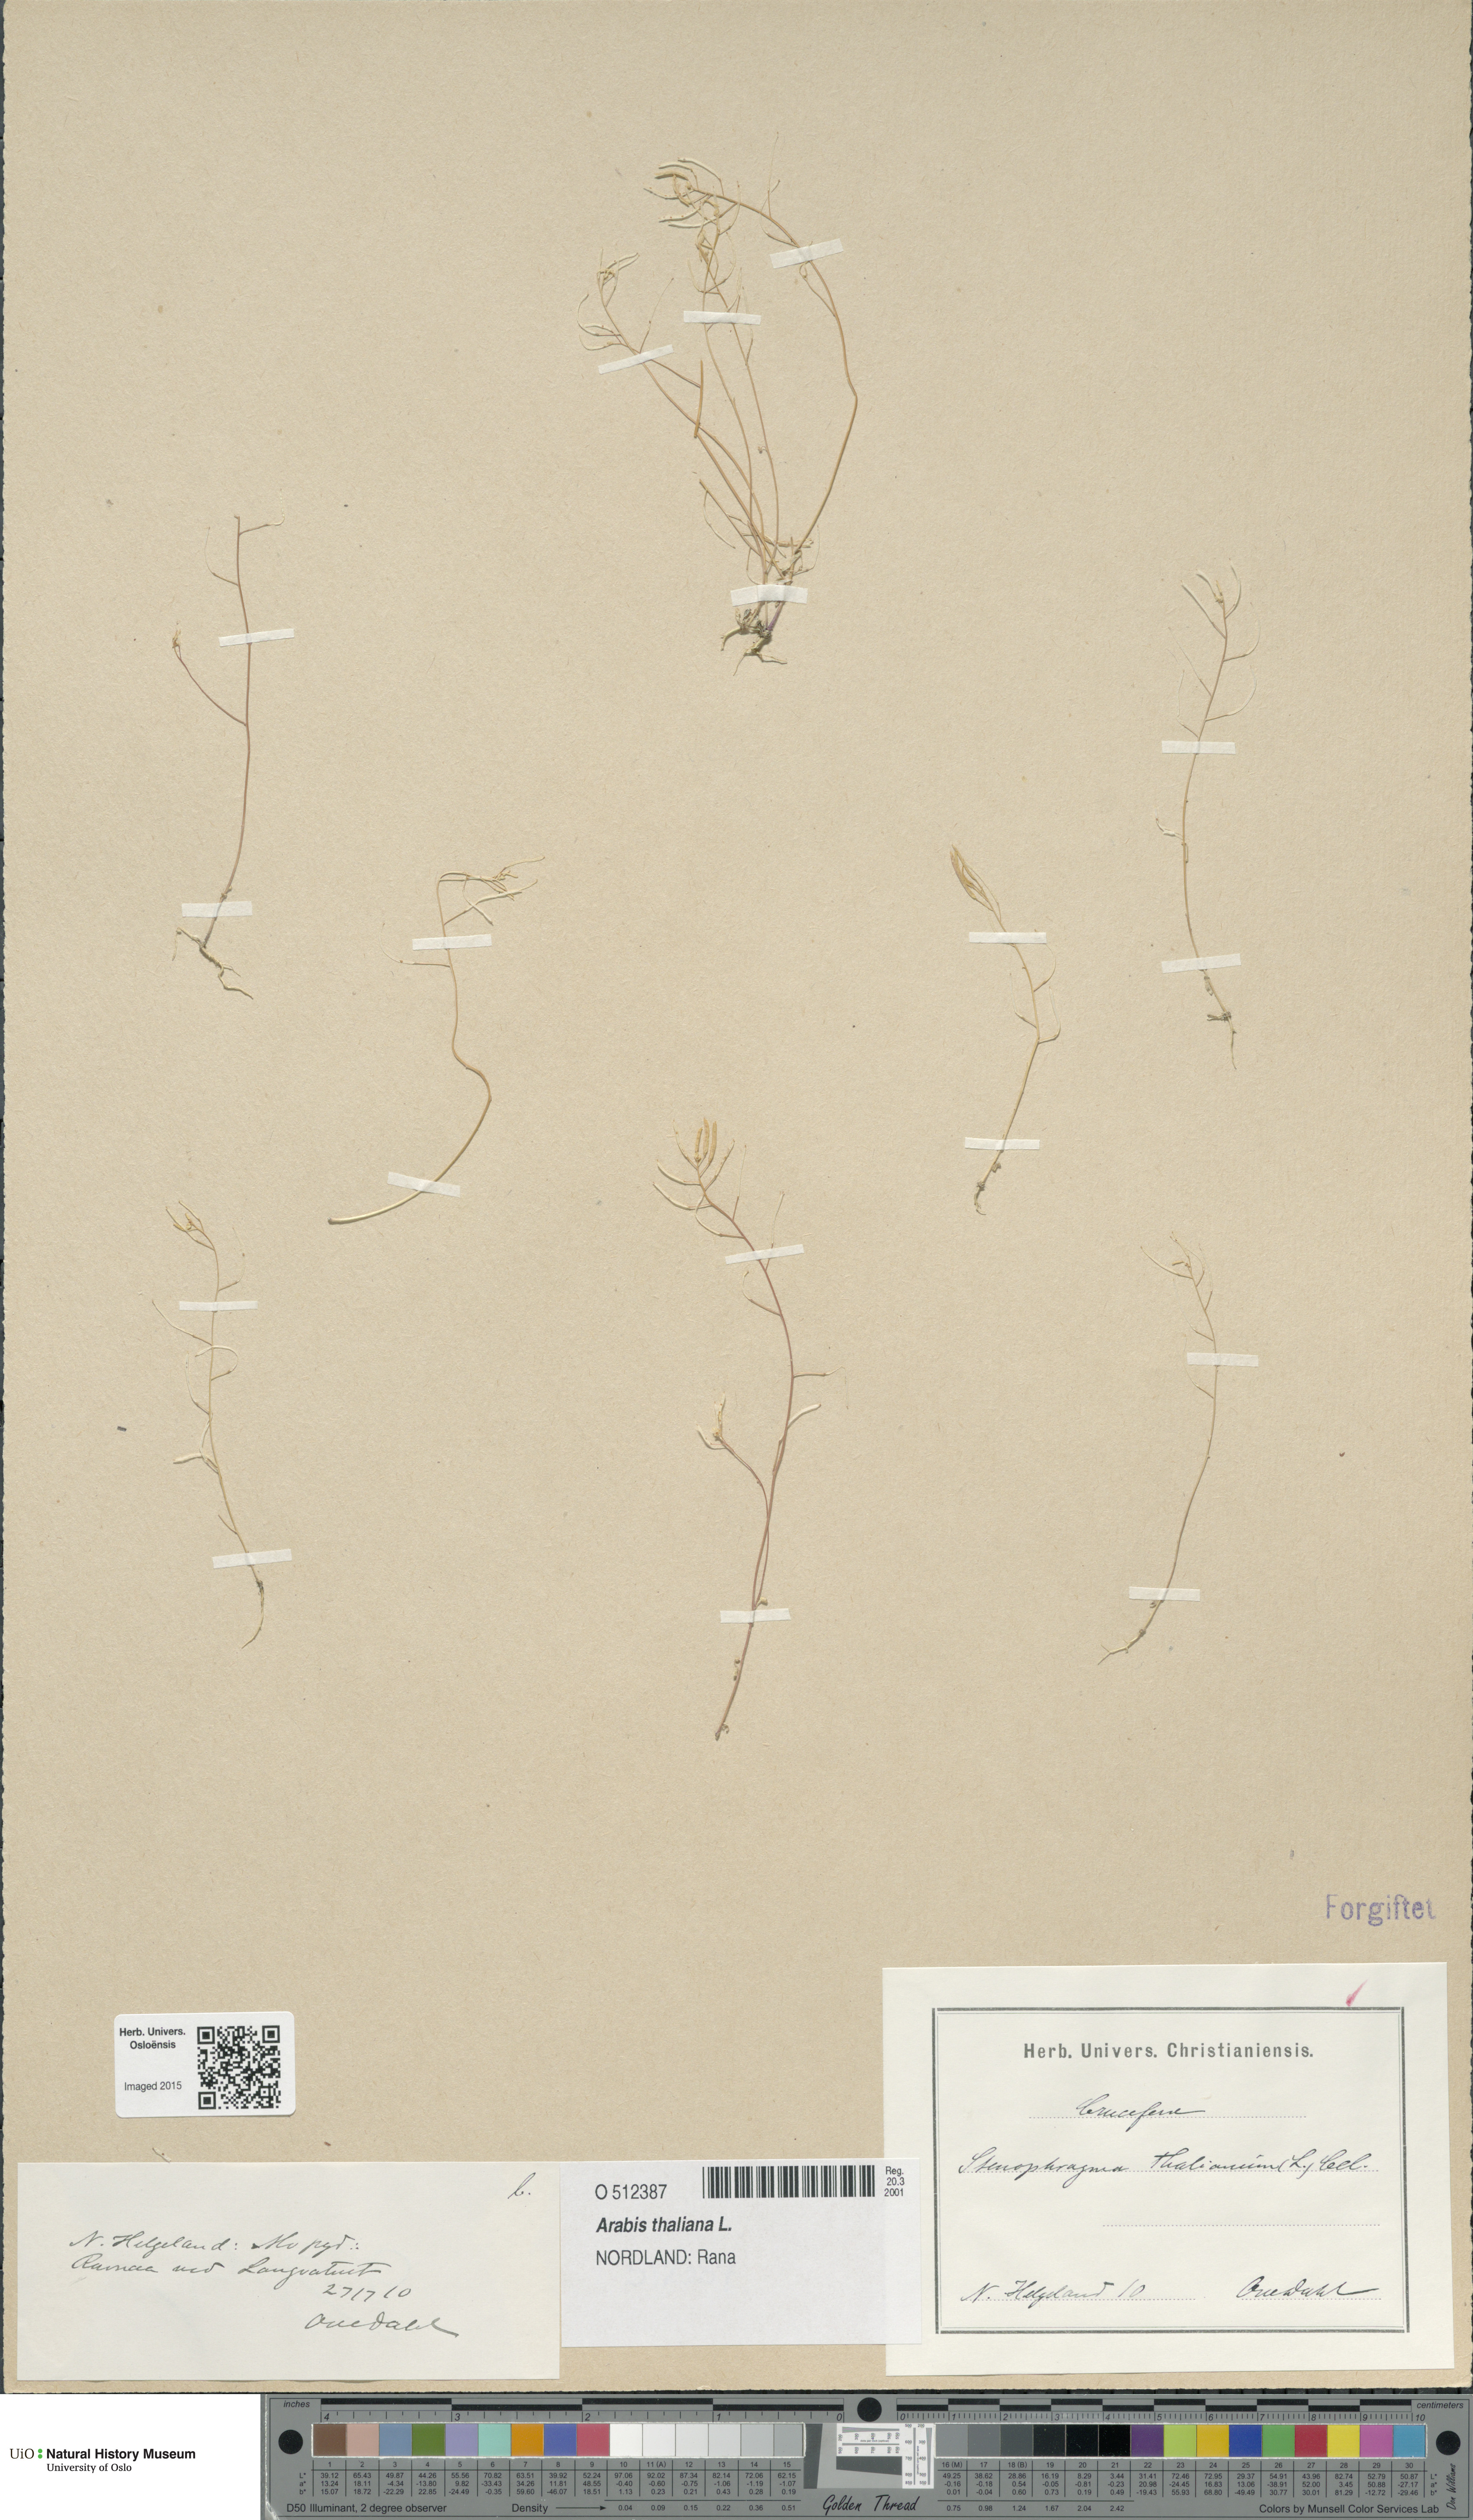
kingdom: Plantae
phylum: Tracheophyta
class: Magnoliopsida
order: Brassicales
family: Brassicaceae
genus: Arabidopsis
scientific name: Arabidopsis thaliana
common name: Thale cress
